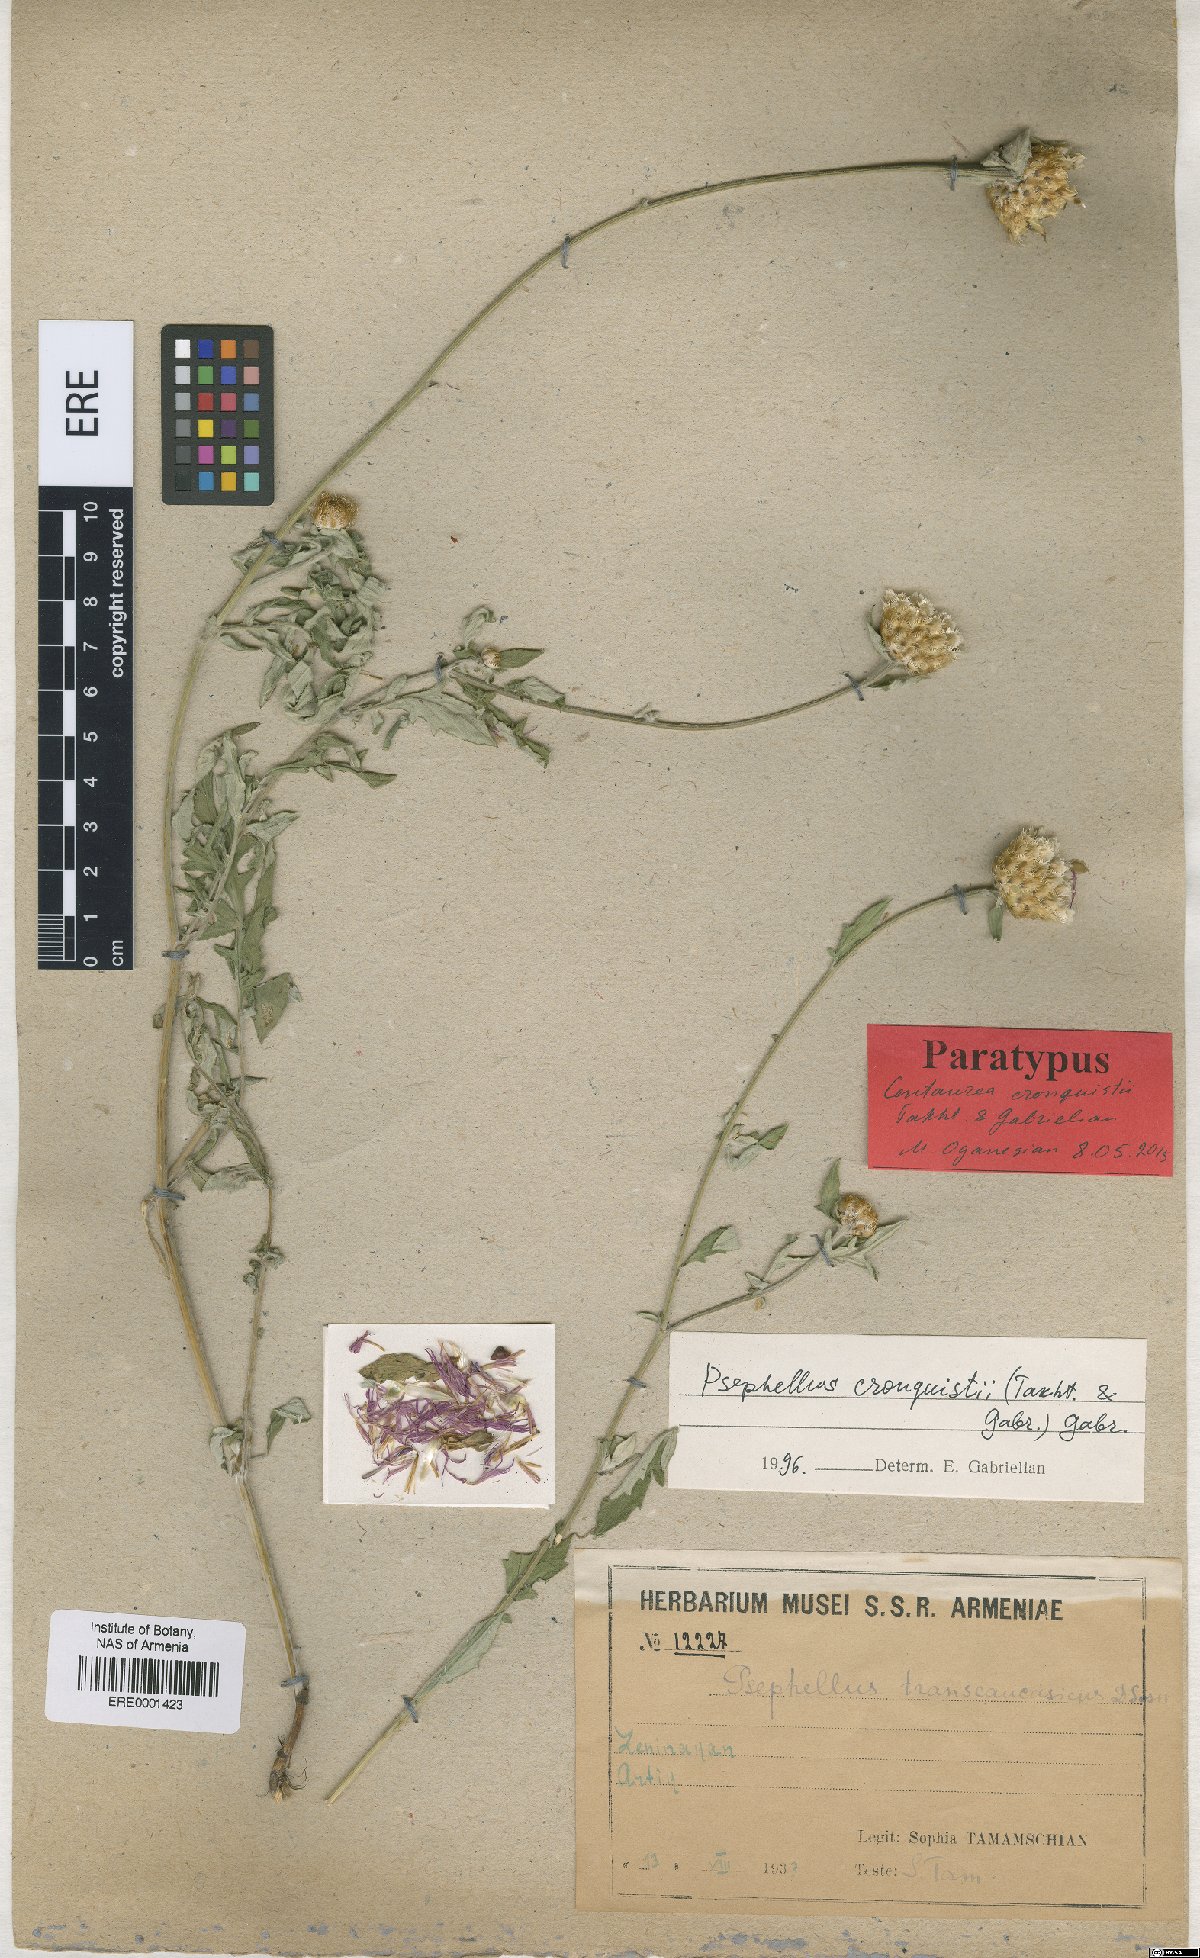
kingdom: Plantae
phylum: Tracheophyta
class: Magnoliopsida
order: Asterales
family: Asteraceae
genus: Psephellus
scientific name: Psephellus cronquistii
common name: Cronquists's cornflower
